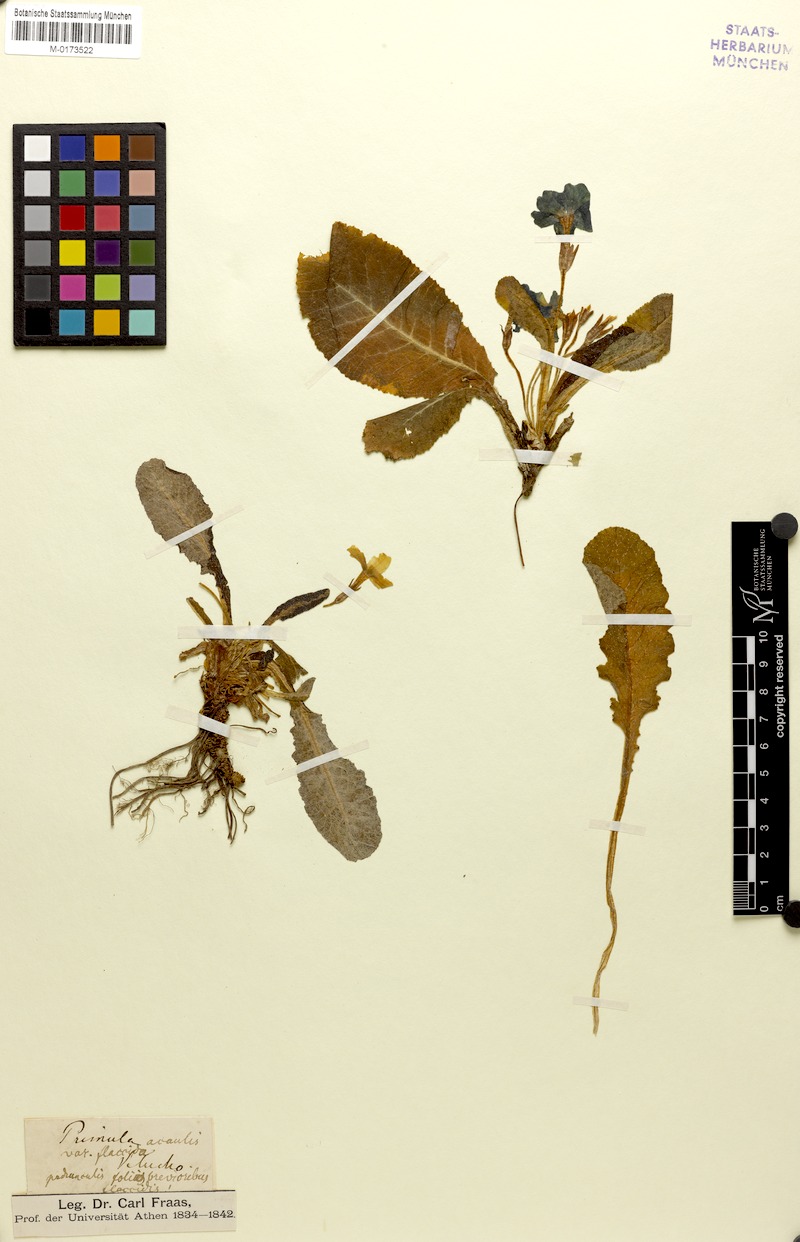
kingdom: Plantae
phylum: Tracheophyta
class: Magnoliopsida
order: Ericales
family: Primulaceae
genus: Primula
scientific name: Primula vulgaris
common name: Primrose
